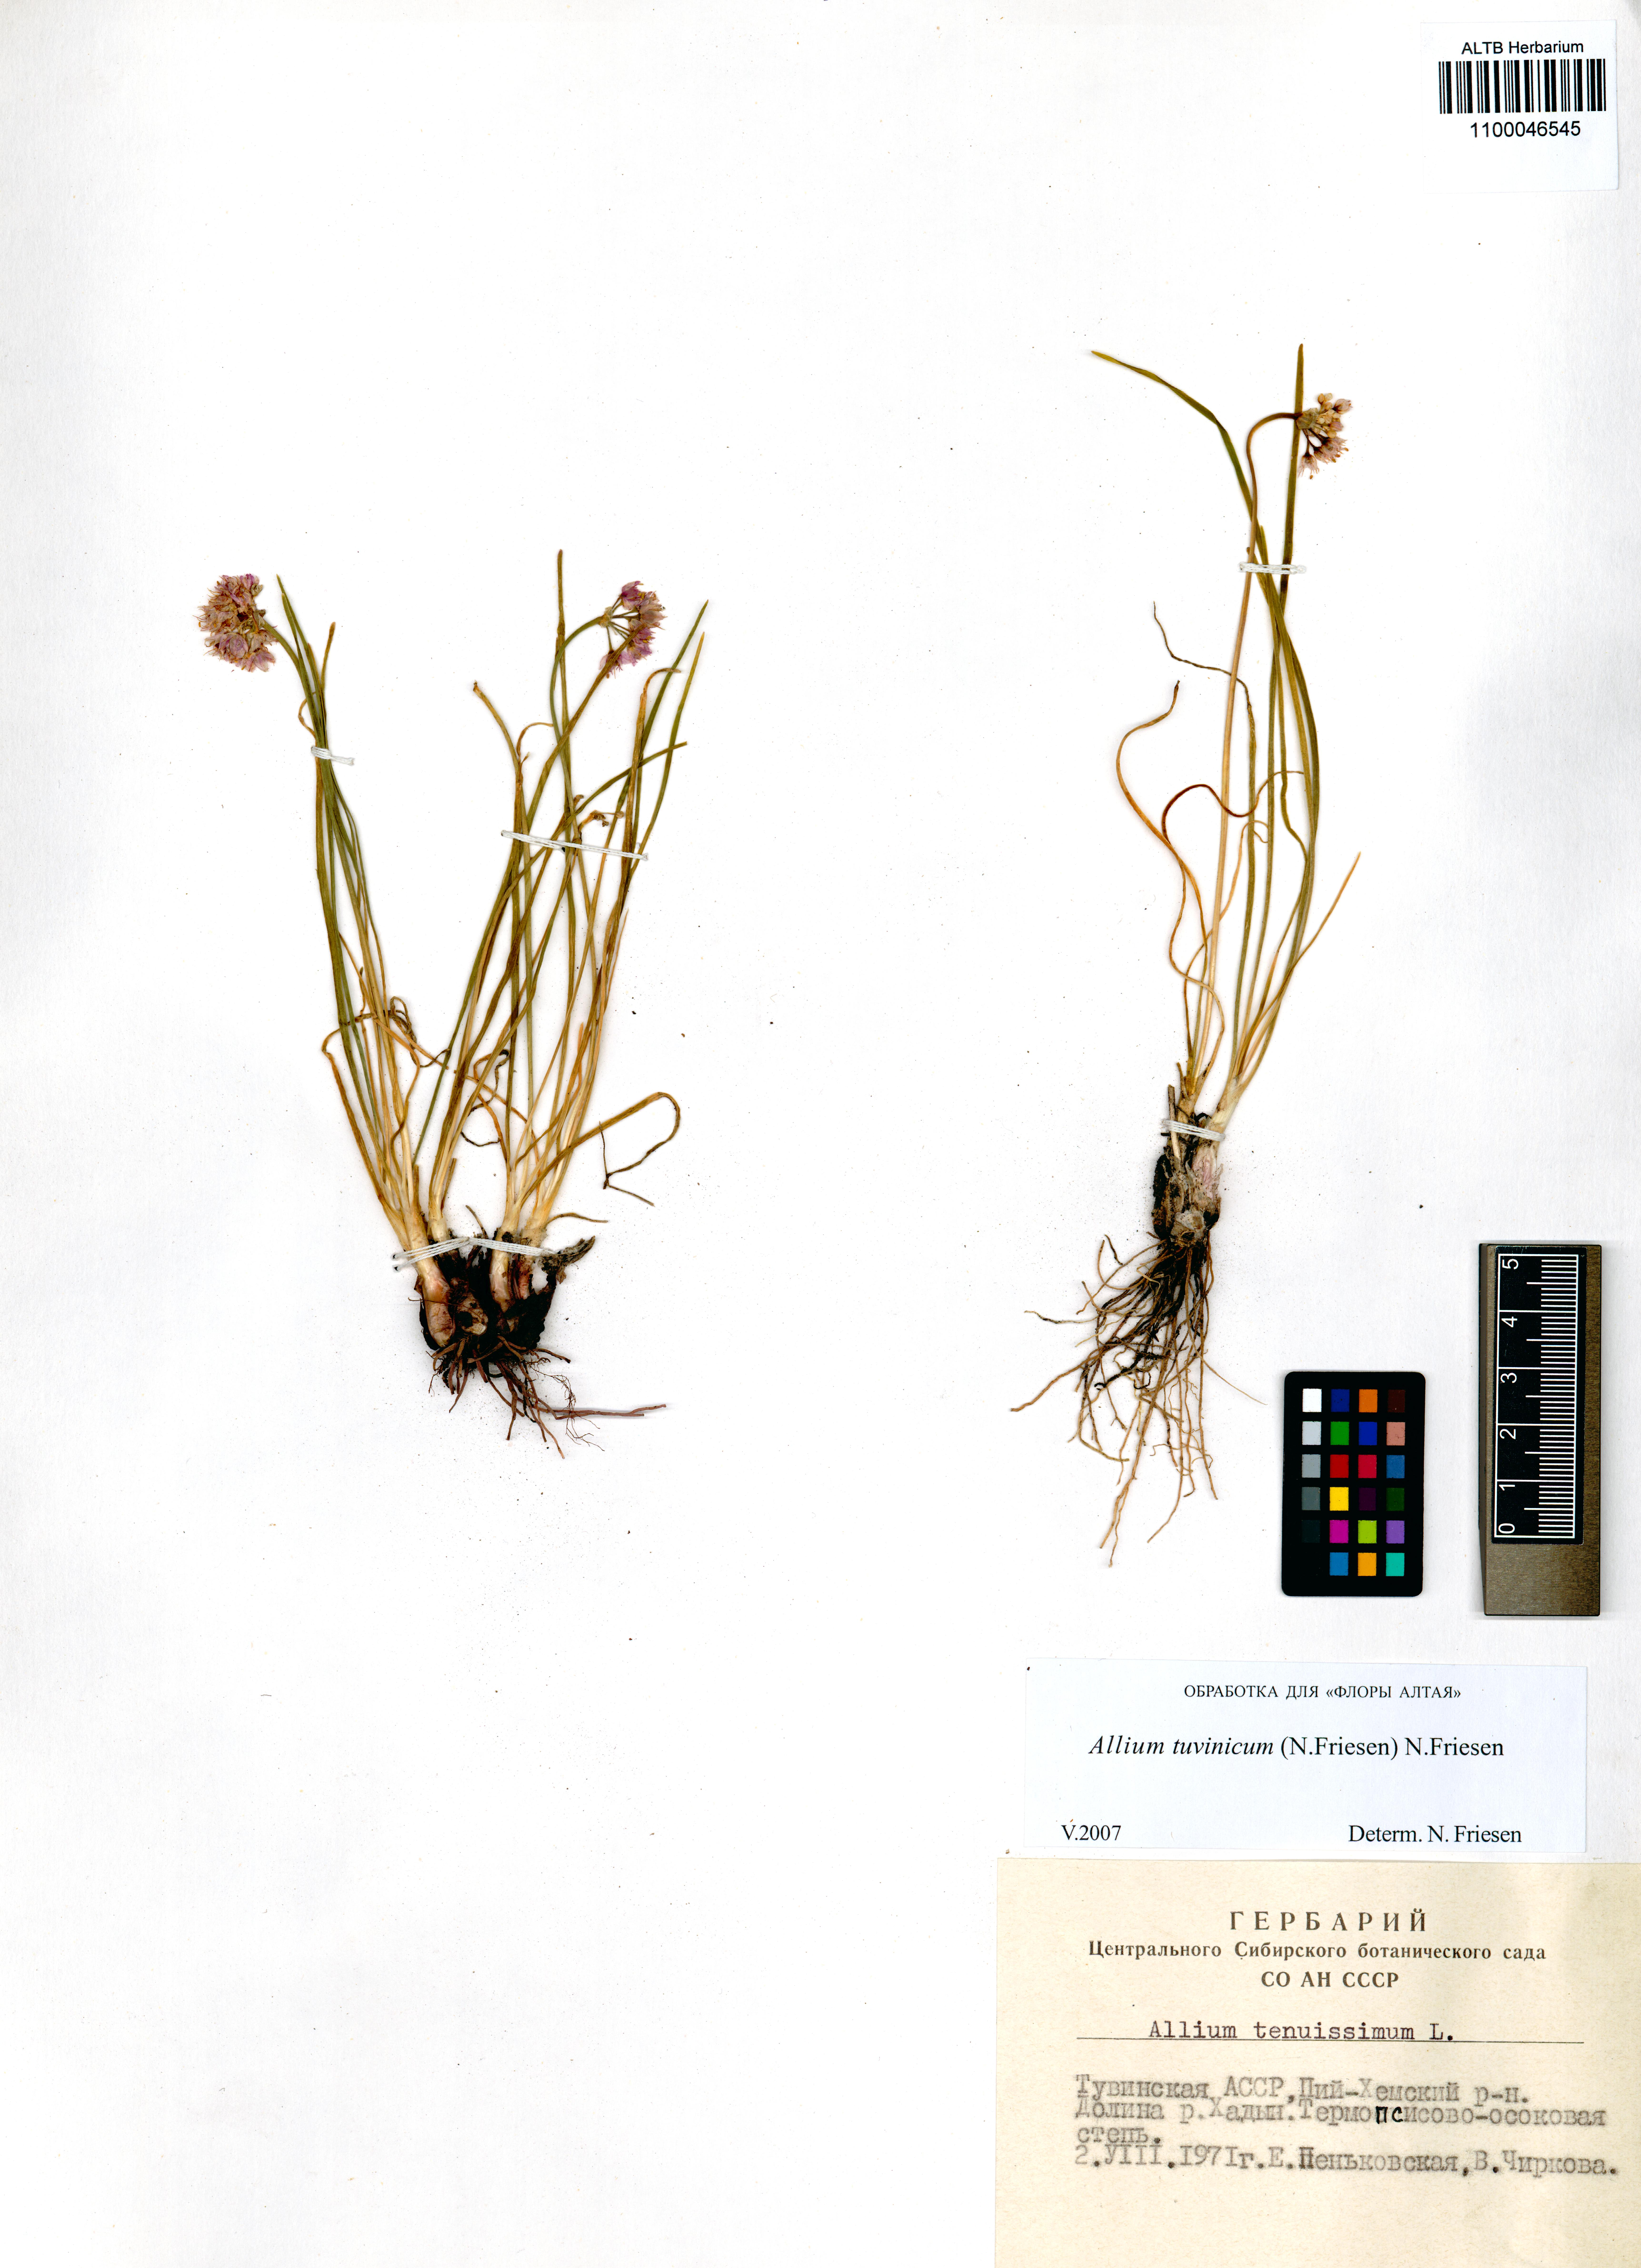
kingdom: Plantae
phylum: Tracheophyta
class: Liliopsida
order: Asparagales
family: Amaryllidaceae
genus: Allium
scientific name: Allium tuvinicum
